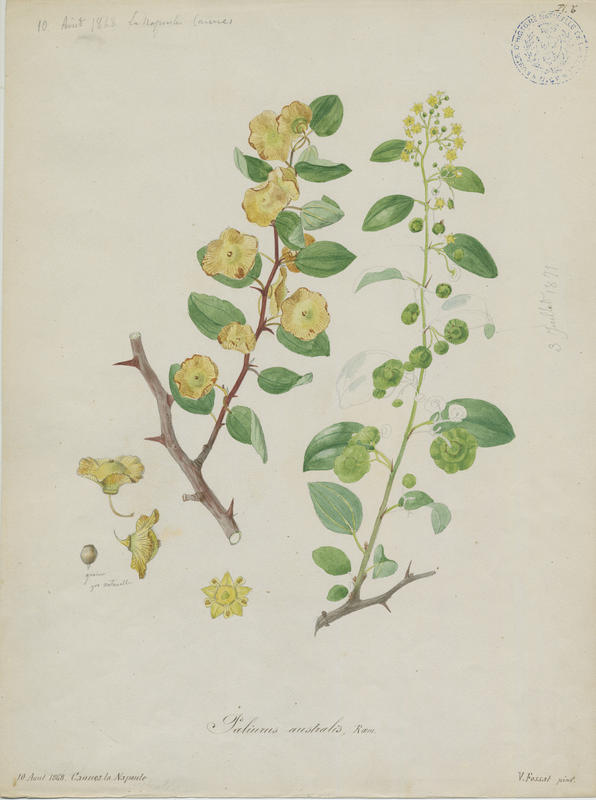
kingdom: Plantae
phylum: Tracheophyta
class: Magnoliopsida
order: Rosales
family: Rhamnaceae
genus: Paliurus
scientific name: Paliurus spina-christi
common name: Jeruselem thorn
